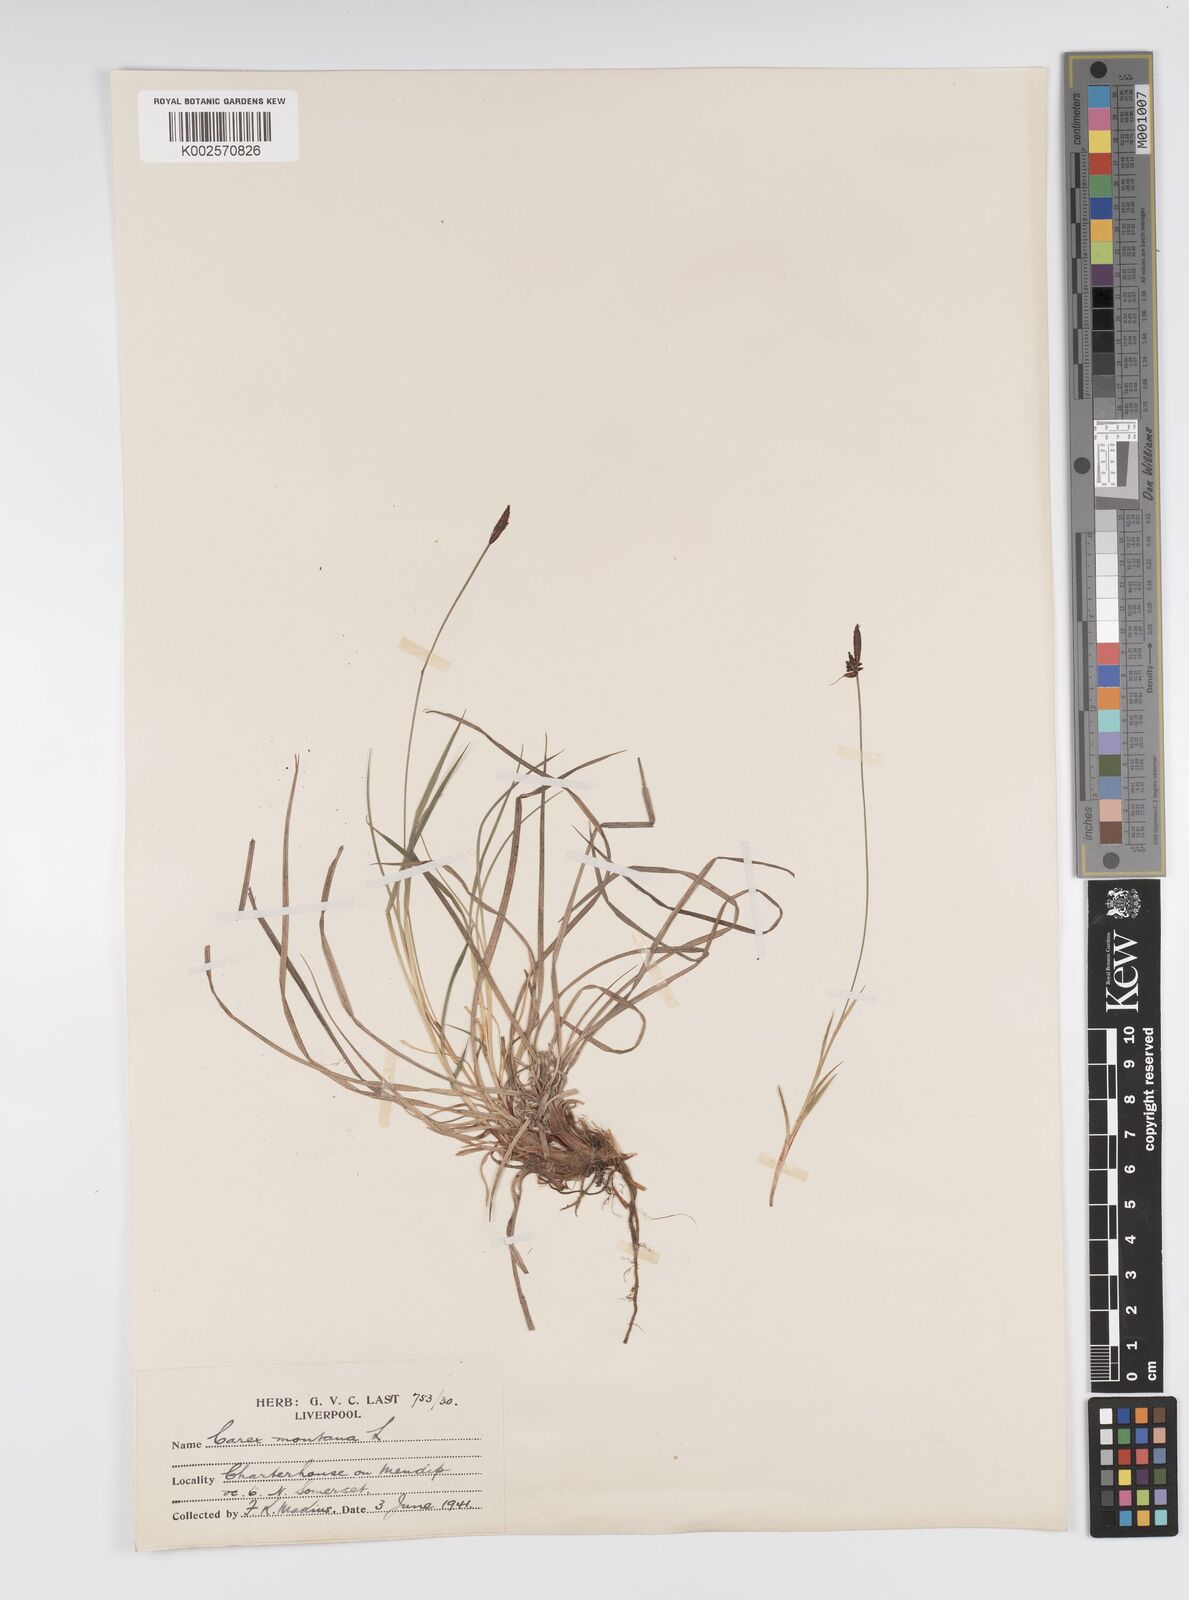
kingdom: Plantae
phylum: Tracheophyta
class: Liliopsida
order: Poales
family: Cyperaceae
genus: Carex
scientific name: Carex montana
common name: Soft-leaved sedge
